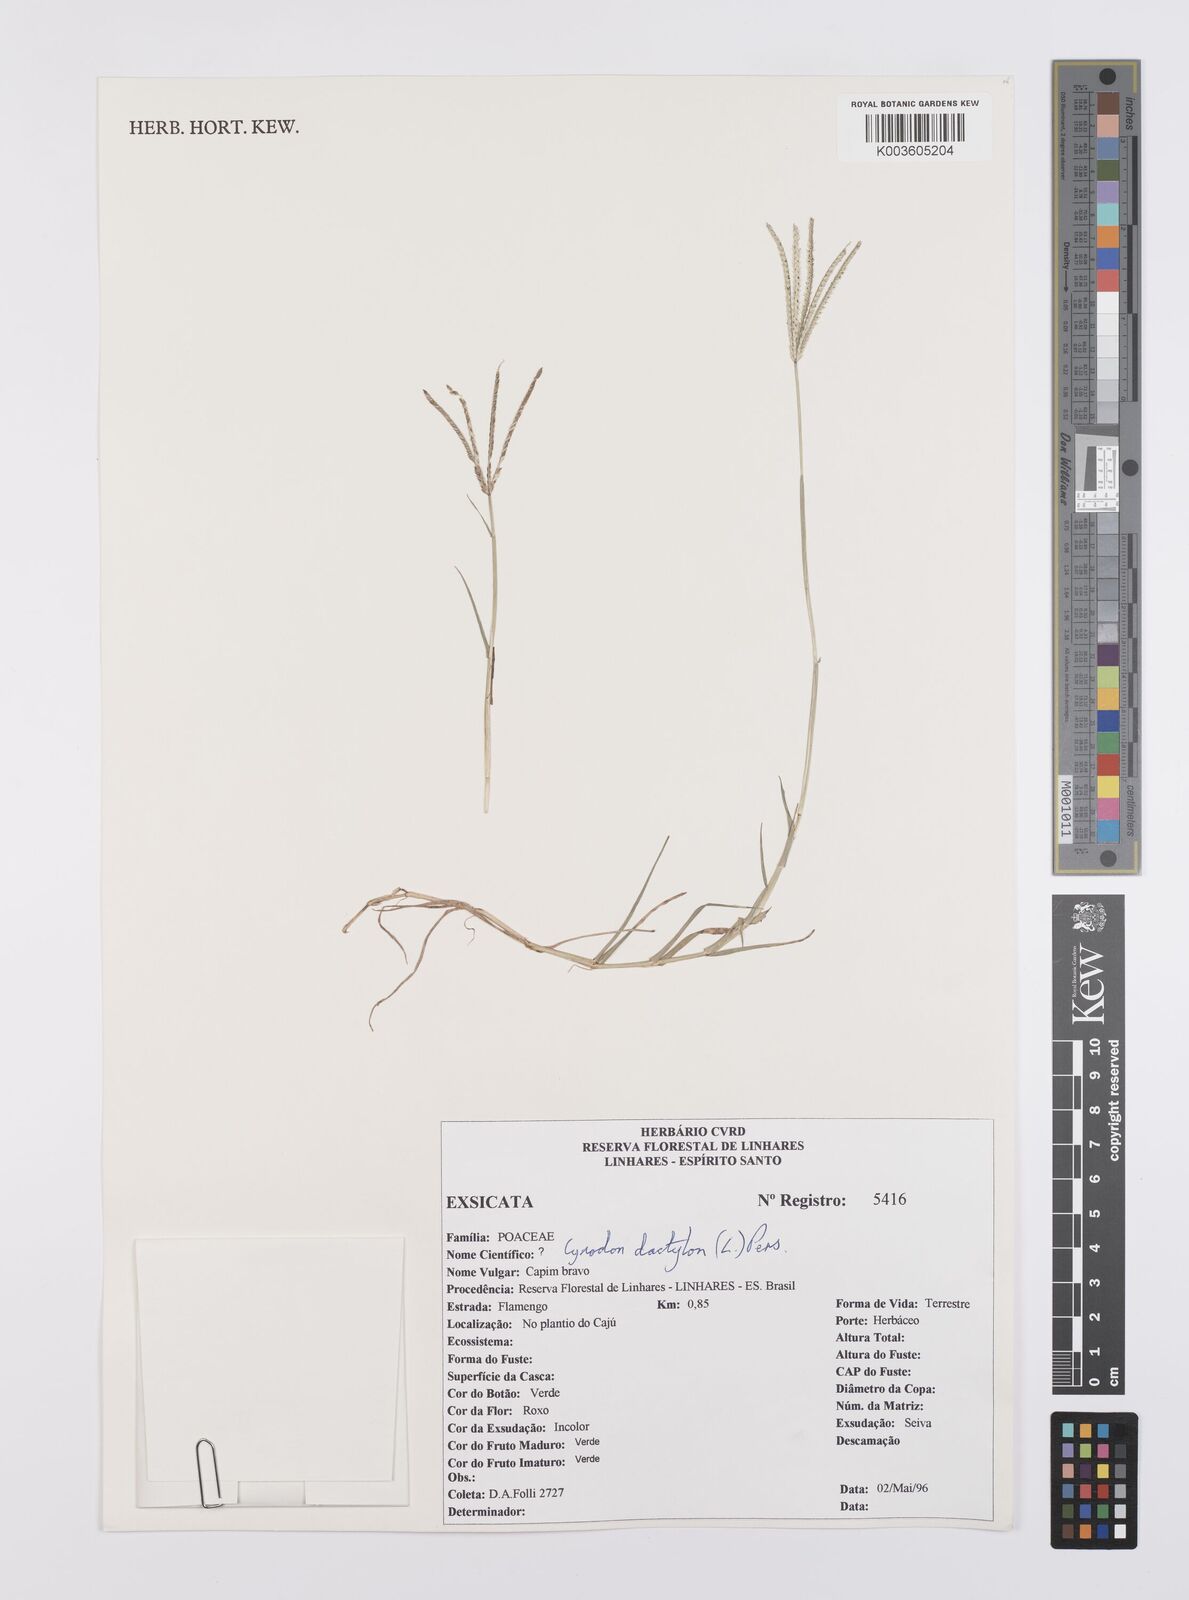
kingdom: Plantae
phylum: Tracheophyta
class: Liliopsida
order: Poales
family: Poaceae
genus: Cynodon
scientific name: Cynodon dactylon
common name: Bermuda grass
